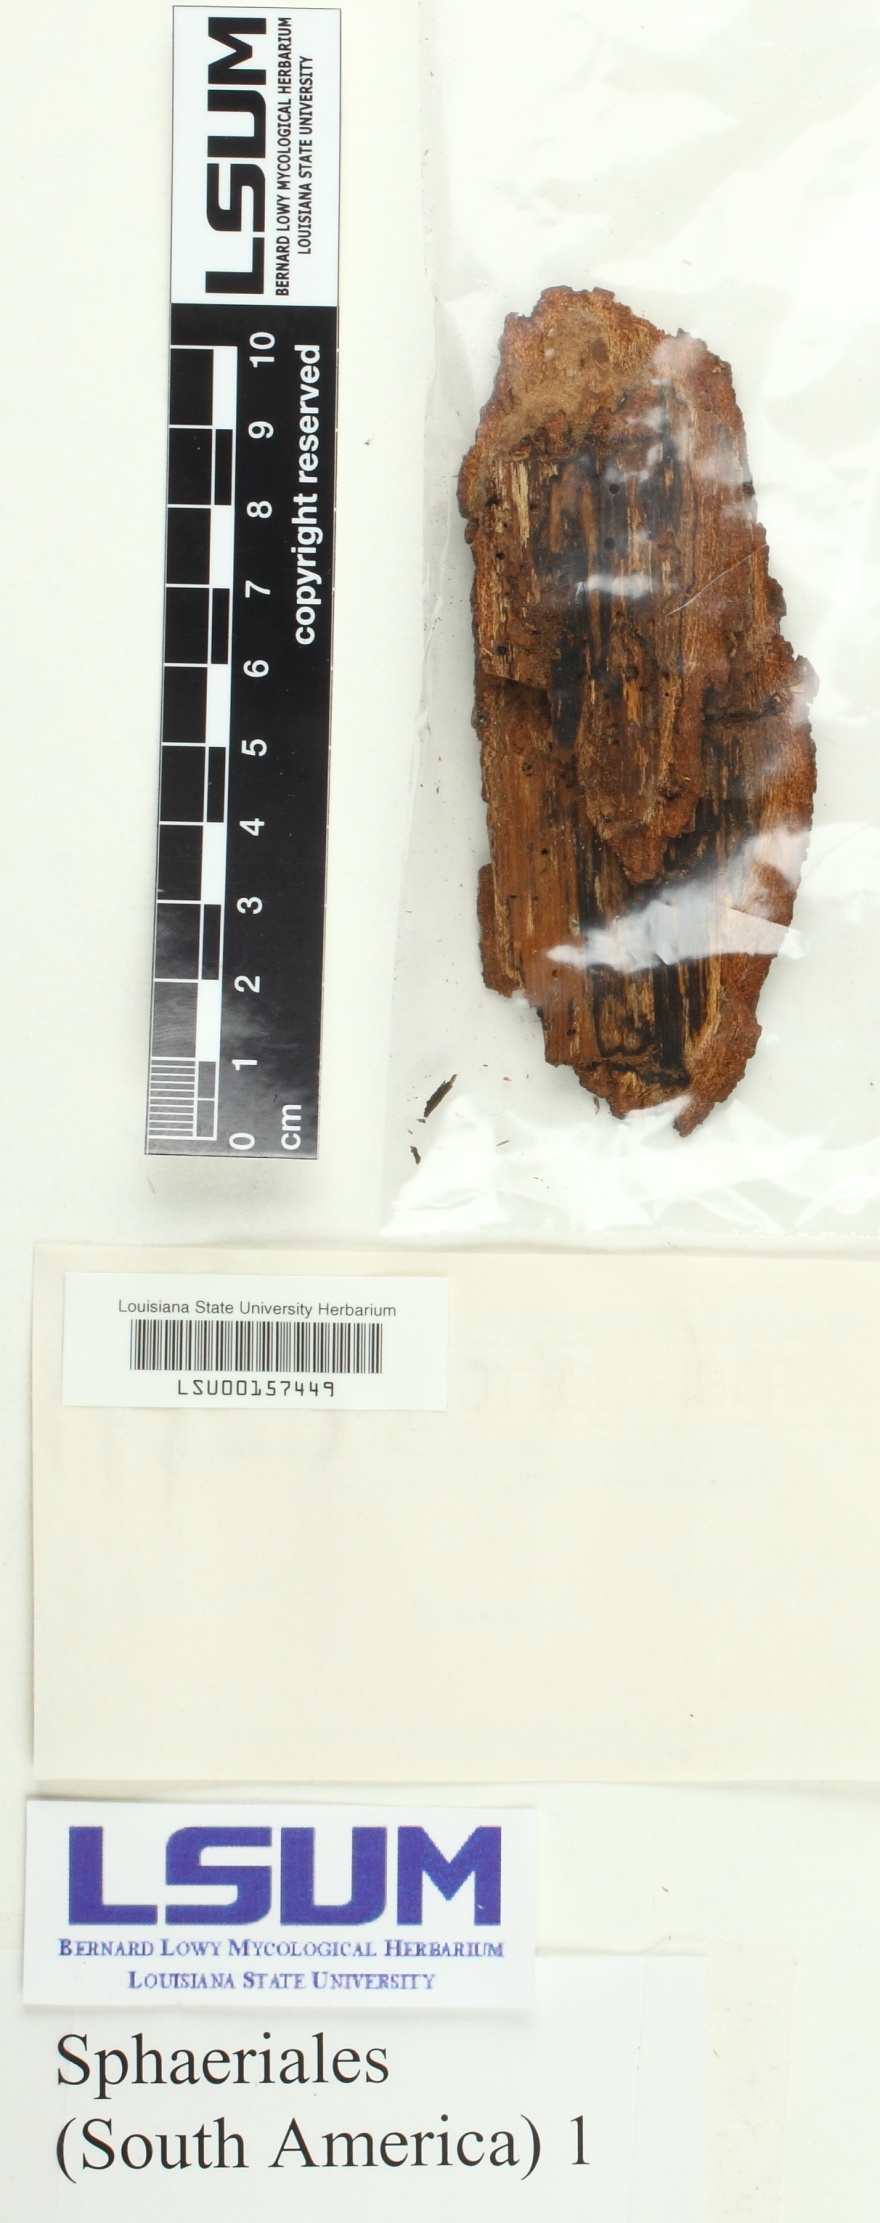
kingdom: Fungi
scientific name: Fungi
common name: Fungi
